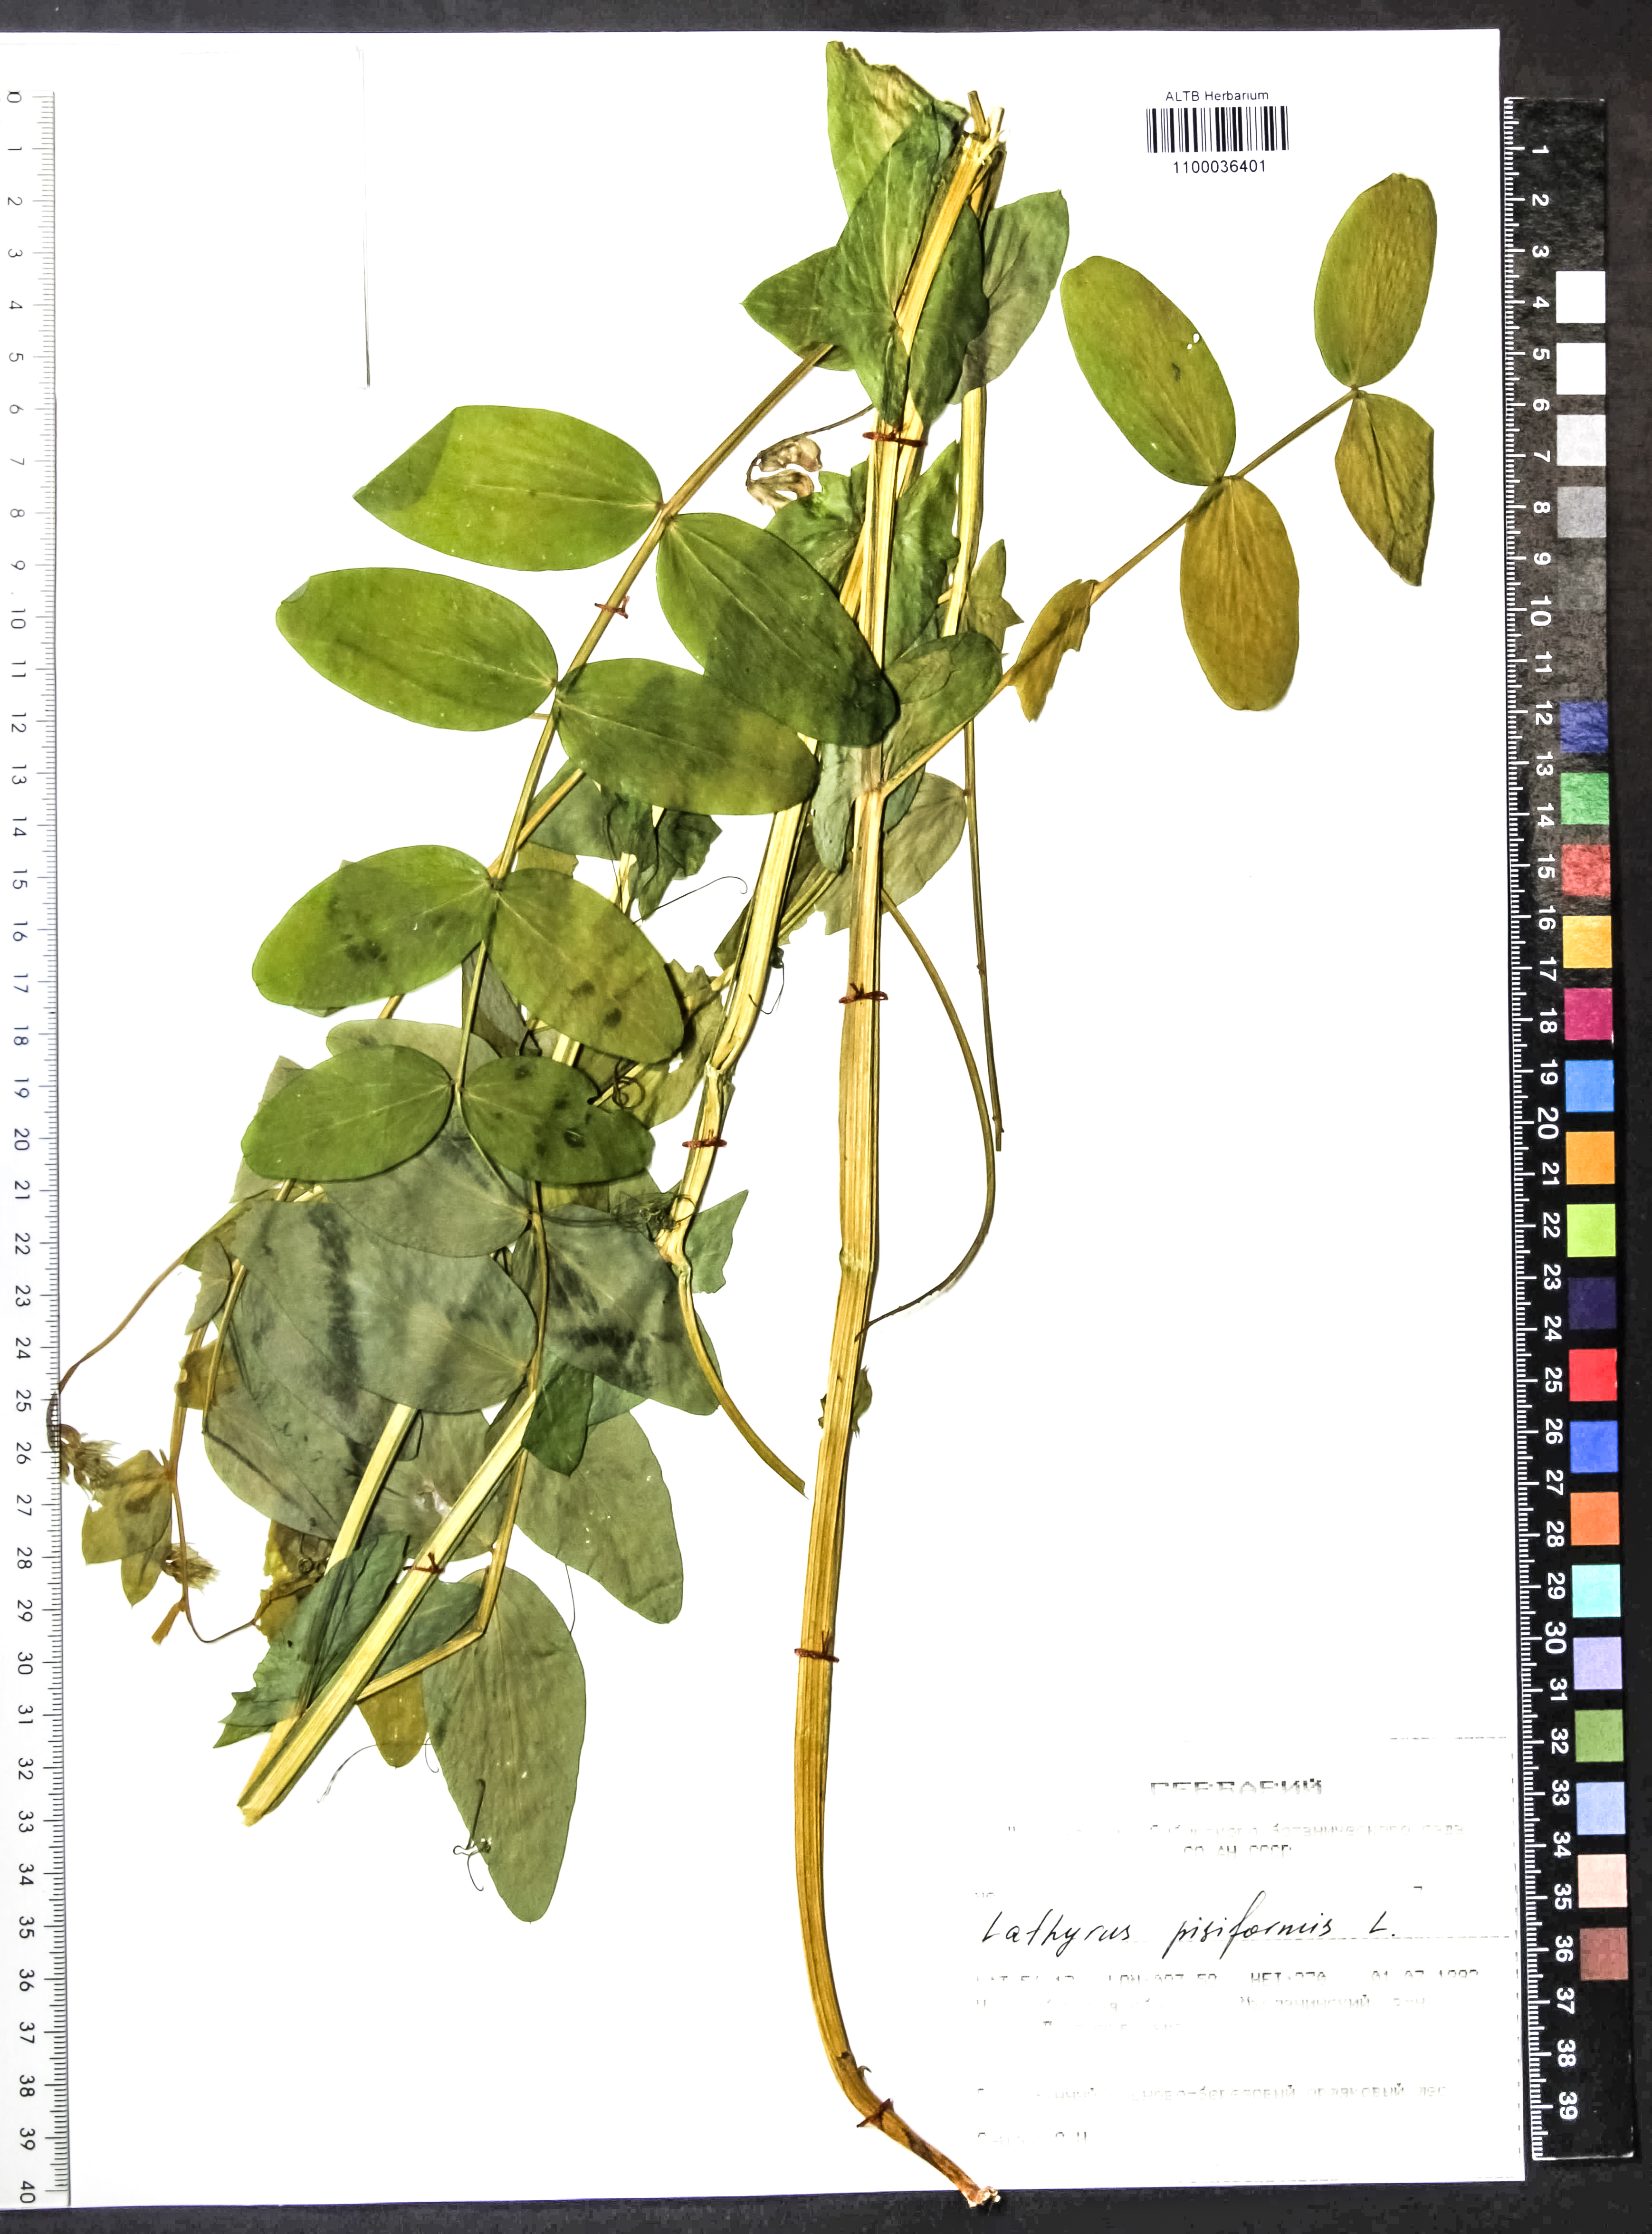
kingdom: Plantae
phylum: Tracheophyta
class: Magnoliopsida
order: Fabales
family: Fabaceae
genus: Lathyrus
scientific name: Lathyrus pisiformis
